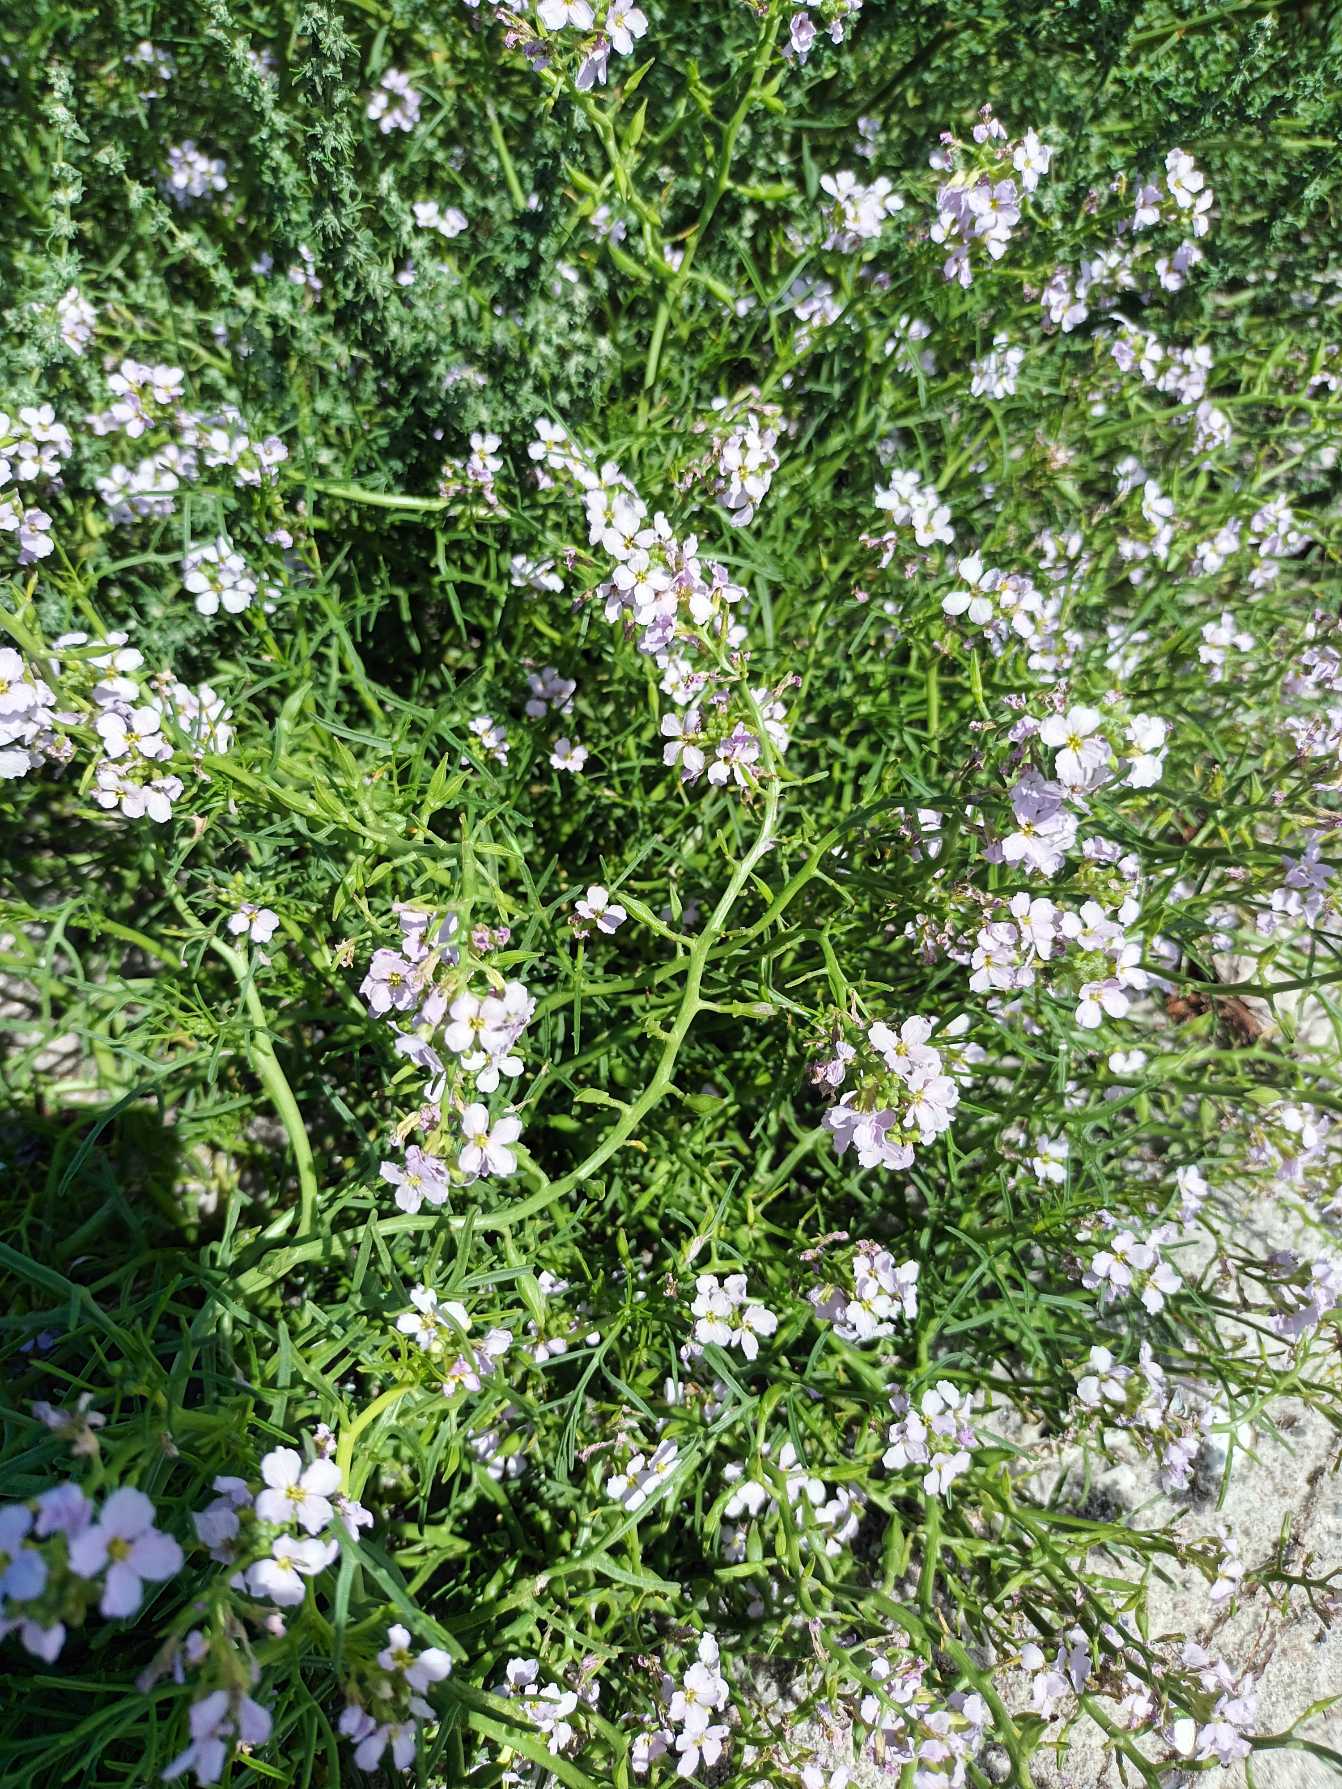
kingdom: Plantae
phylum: Tracheophyta
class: Magnoliopsida
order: Brassicales
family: Brassicaceae
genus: Cakile
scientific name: Cakile maritima
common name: Strandsennep
